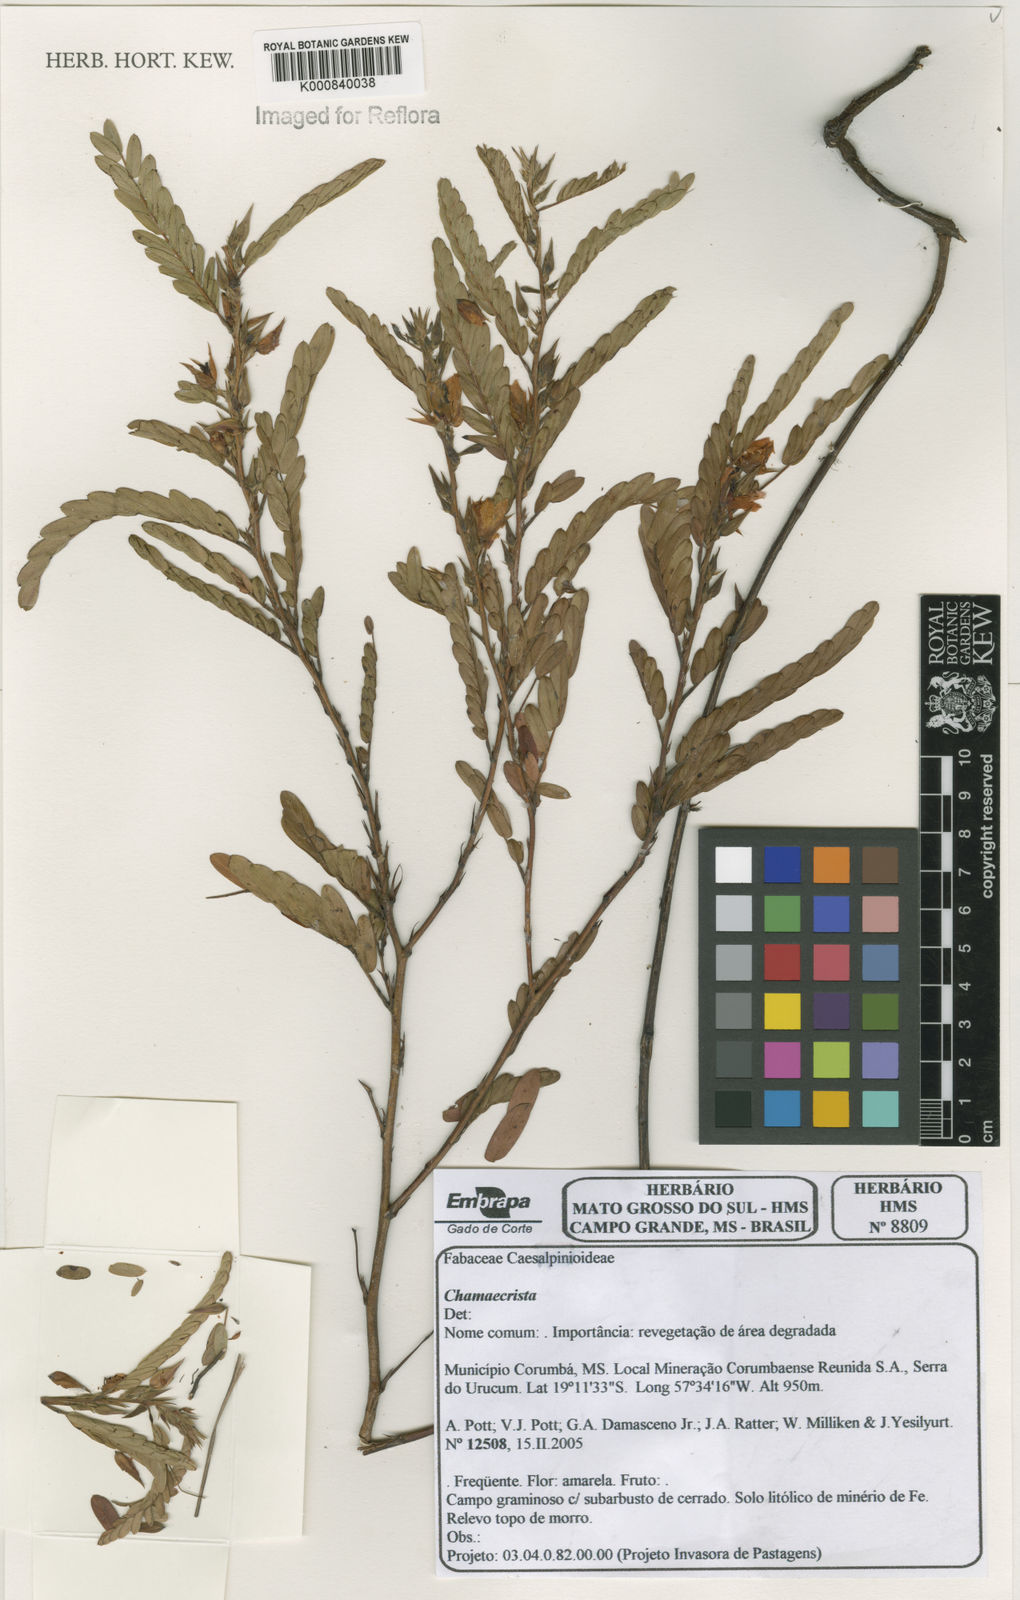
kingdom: Plantae
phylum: Tracheophyta
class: Magnoliopsida
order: Fabales
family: Fabaceae
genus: Chamaecrista
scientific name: Chamaecrista
